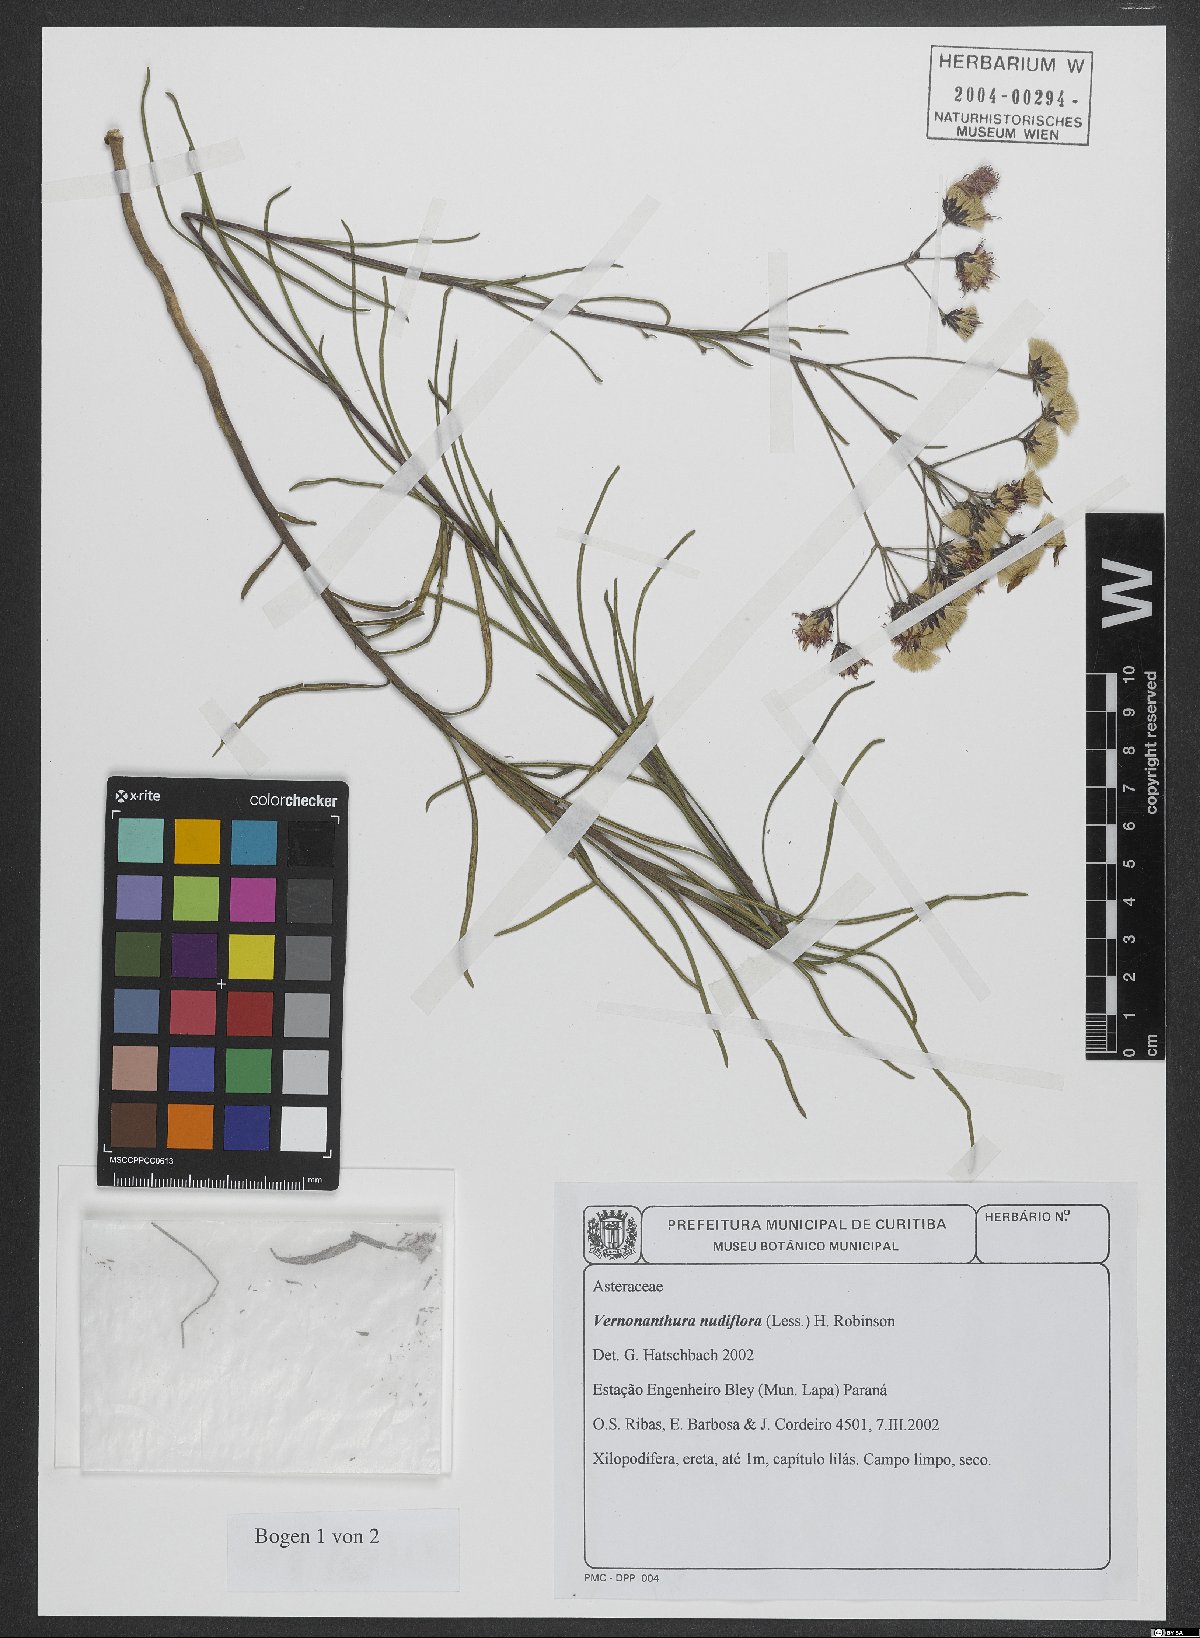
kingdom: Plantae
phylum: Tracheophyta
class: Magnoliopsida
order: Asterales
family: Asteraceae
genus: Vernonanthura
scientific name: Vernonanthura nudiflora
